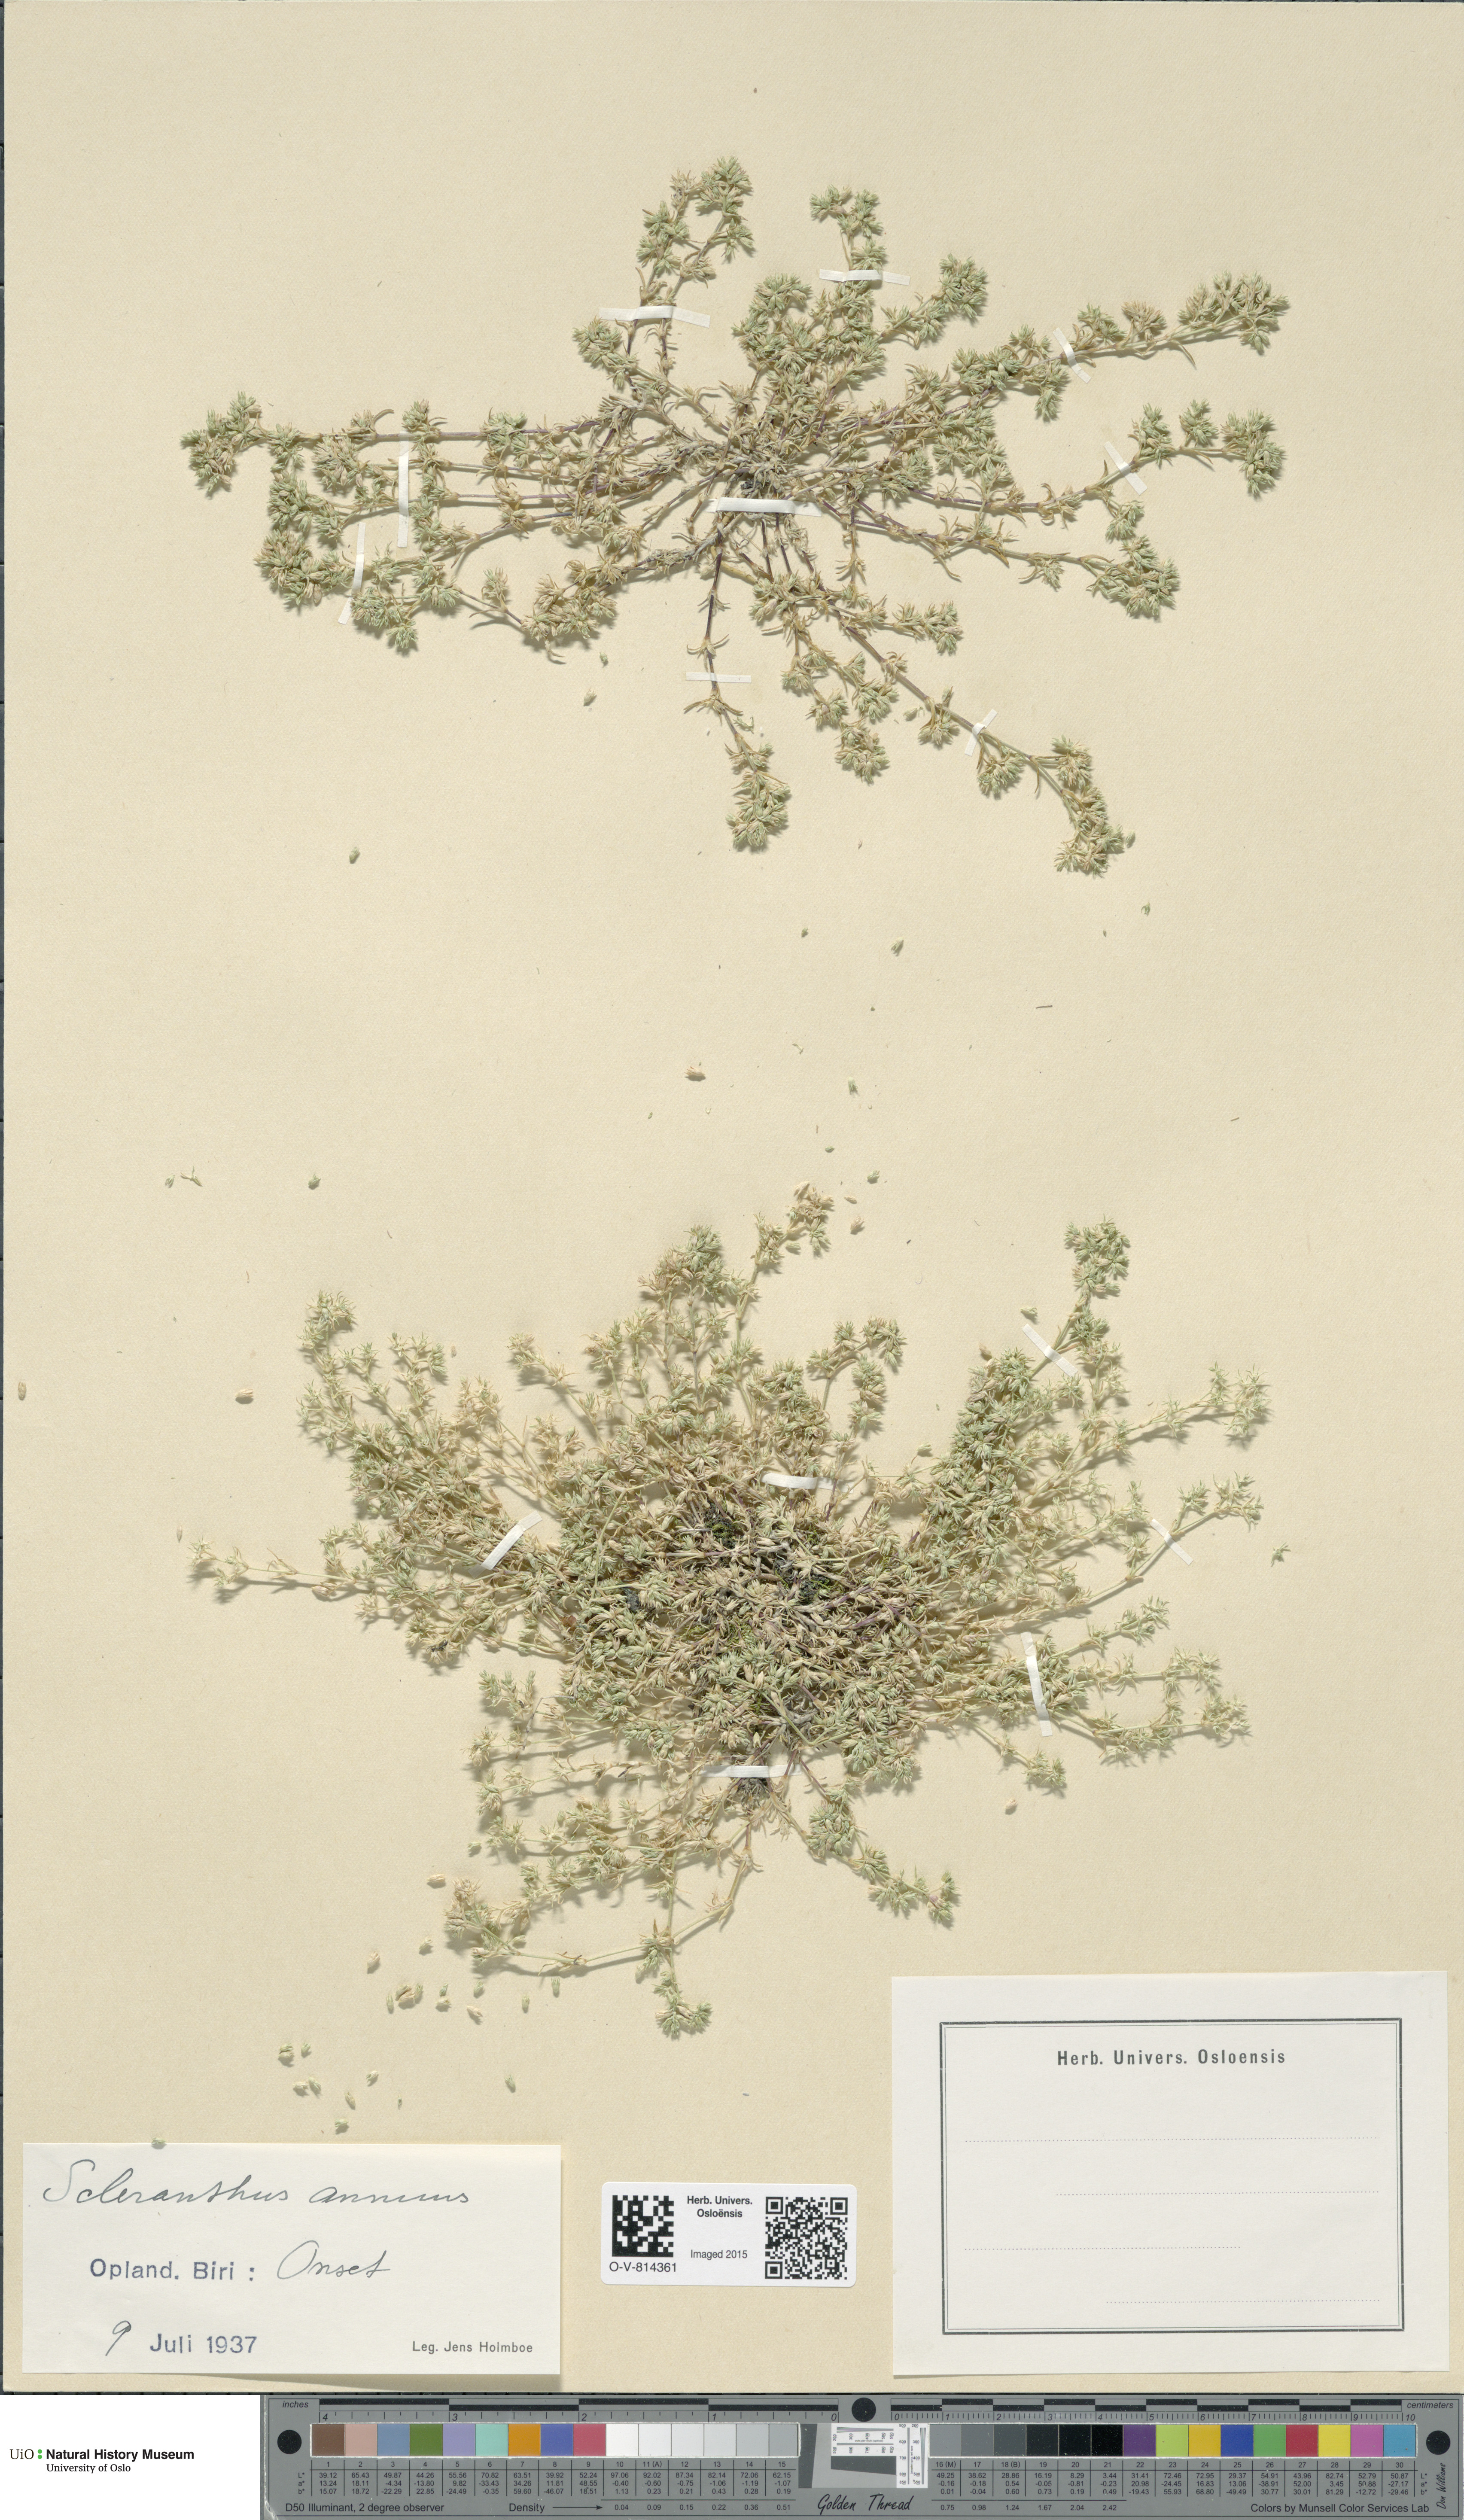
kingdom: Plantae
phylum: Tracheophyta
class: Magnoliopsida
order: Caryophyllales
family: Caryophyllaceae
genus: Scleranthus
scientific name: Scleranthus annuus
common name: Annual knawel
